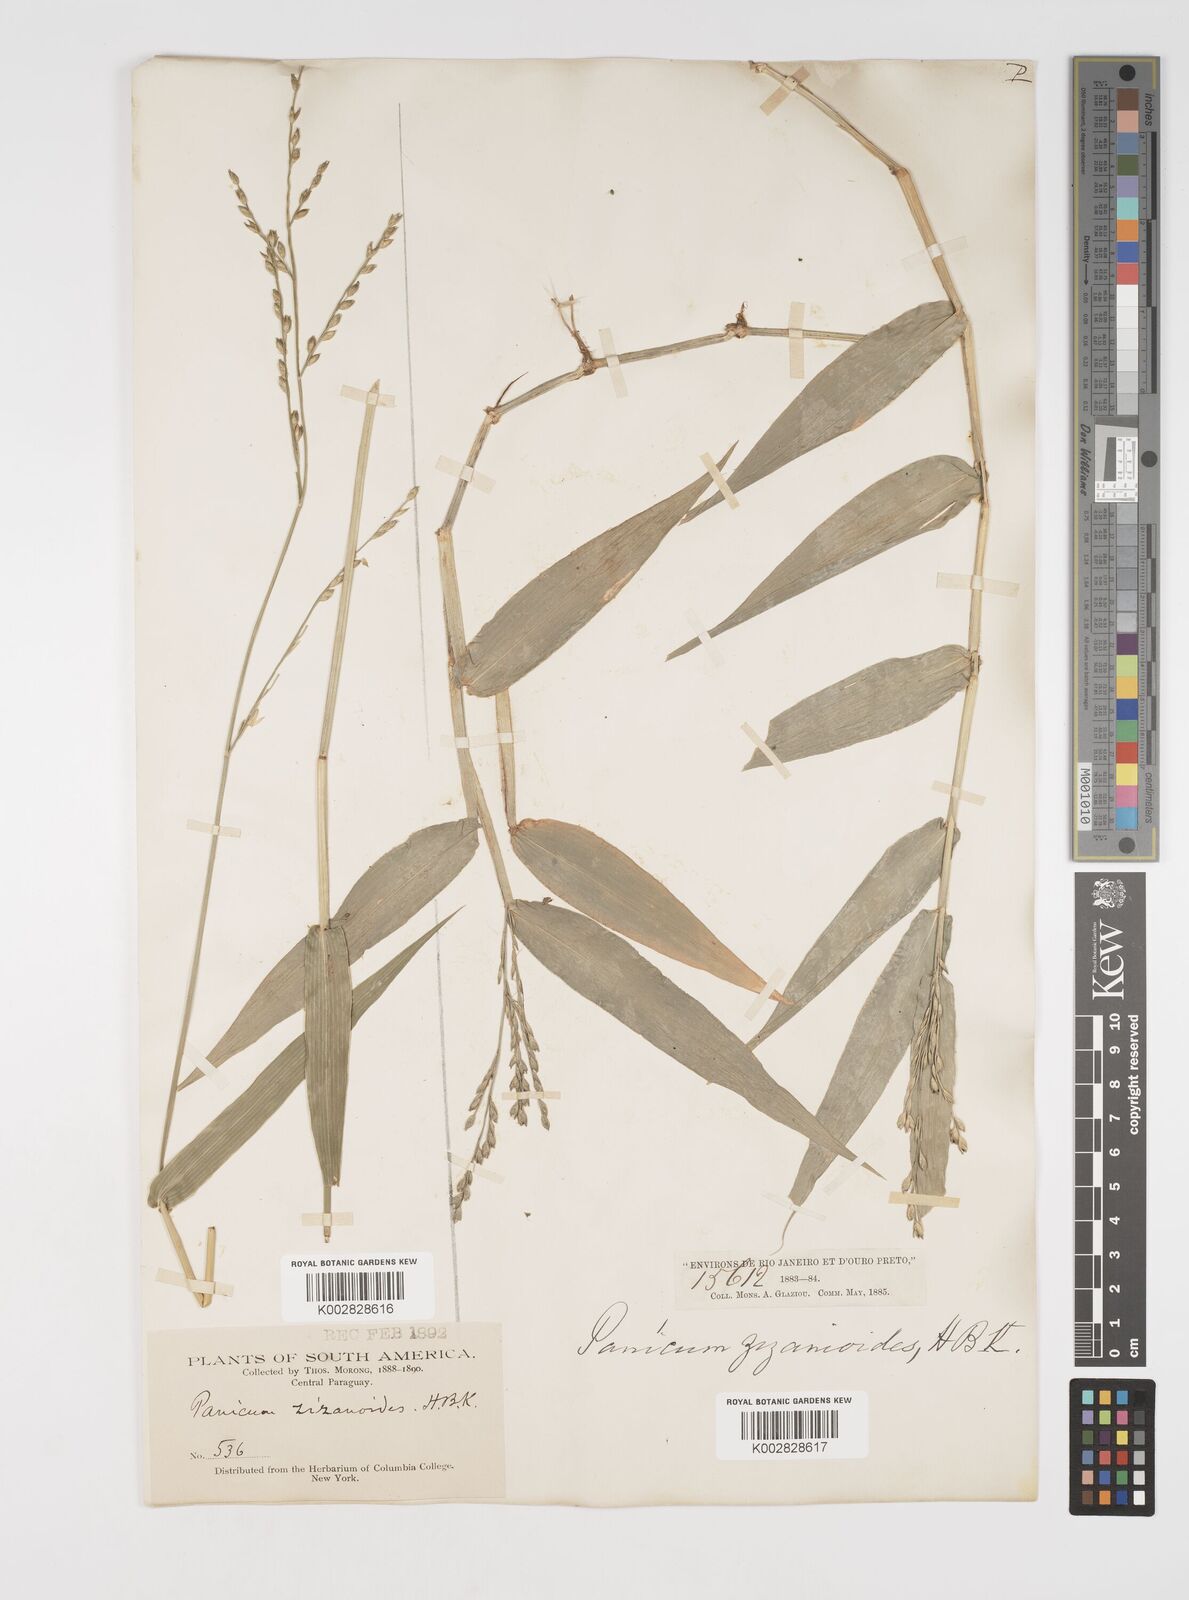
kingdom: Plantae
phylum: Tracheophyta
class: Liliopsida
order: Poales
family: Poaceae
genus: Acroceras
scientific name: Acroceras zizanioides
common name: Oat grass
